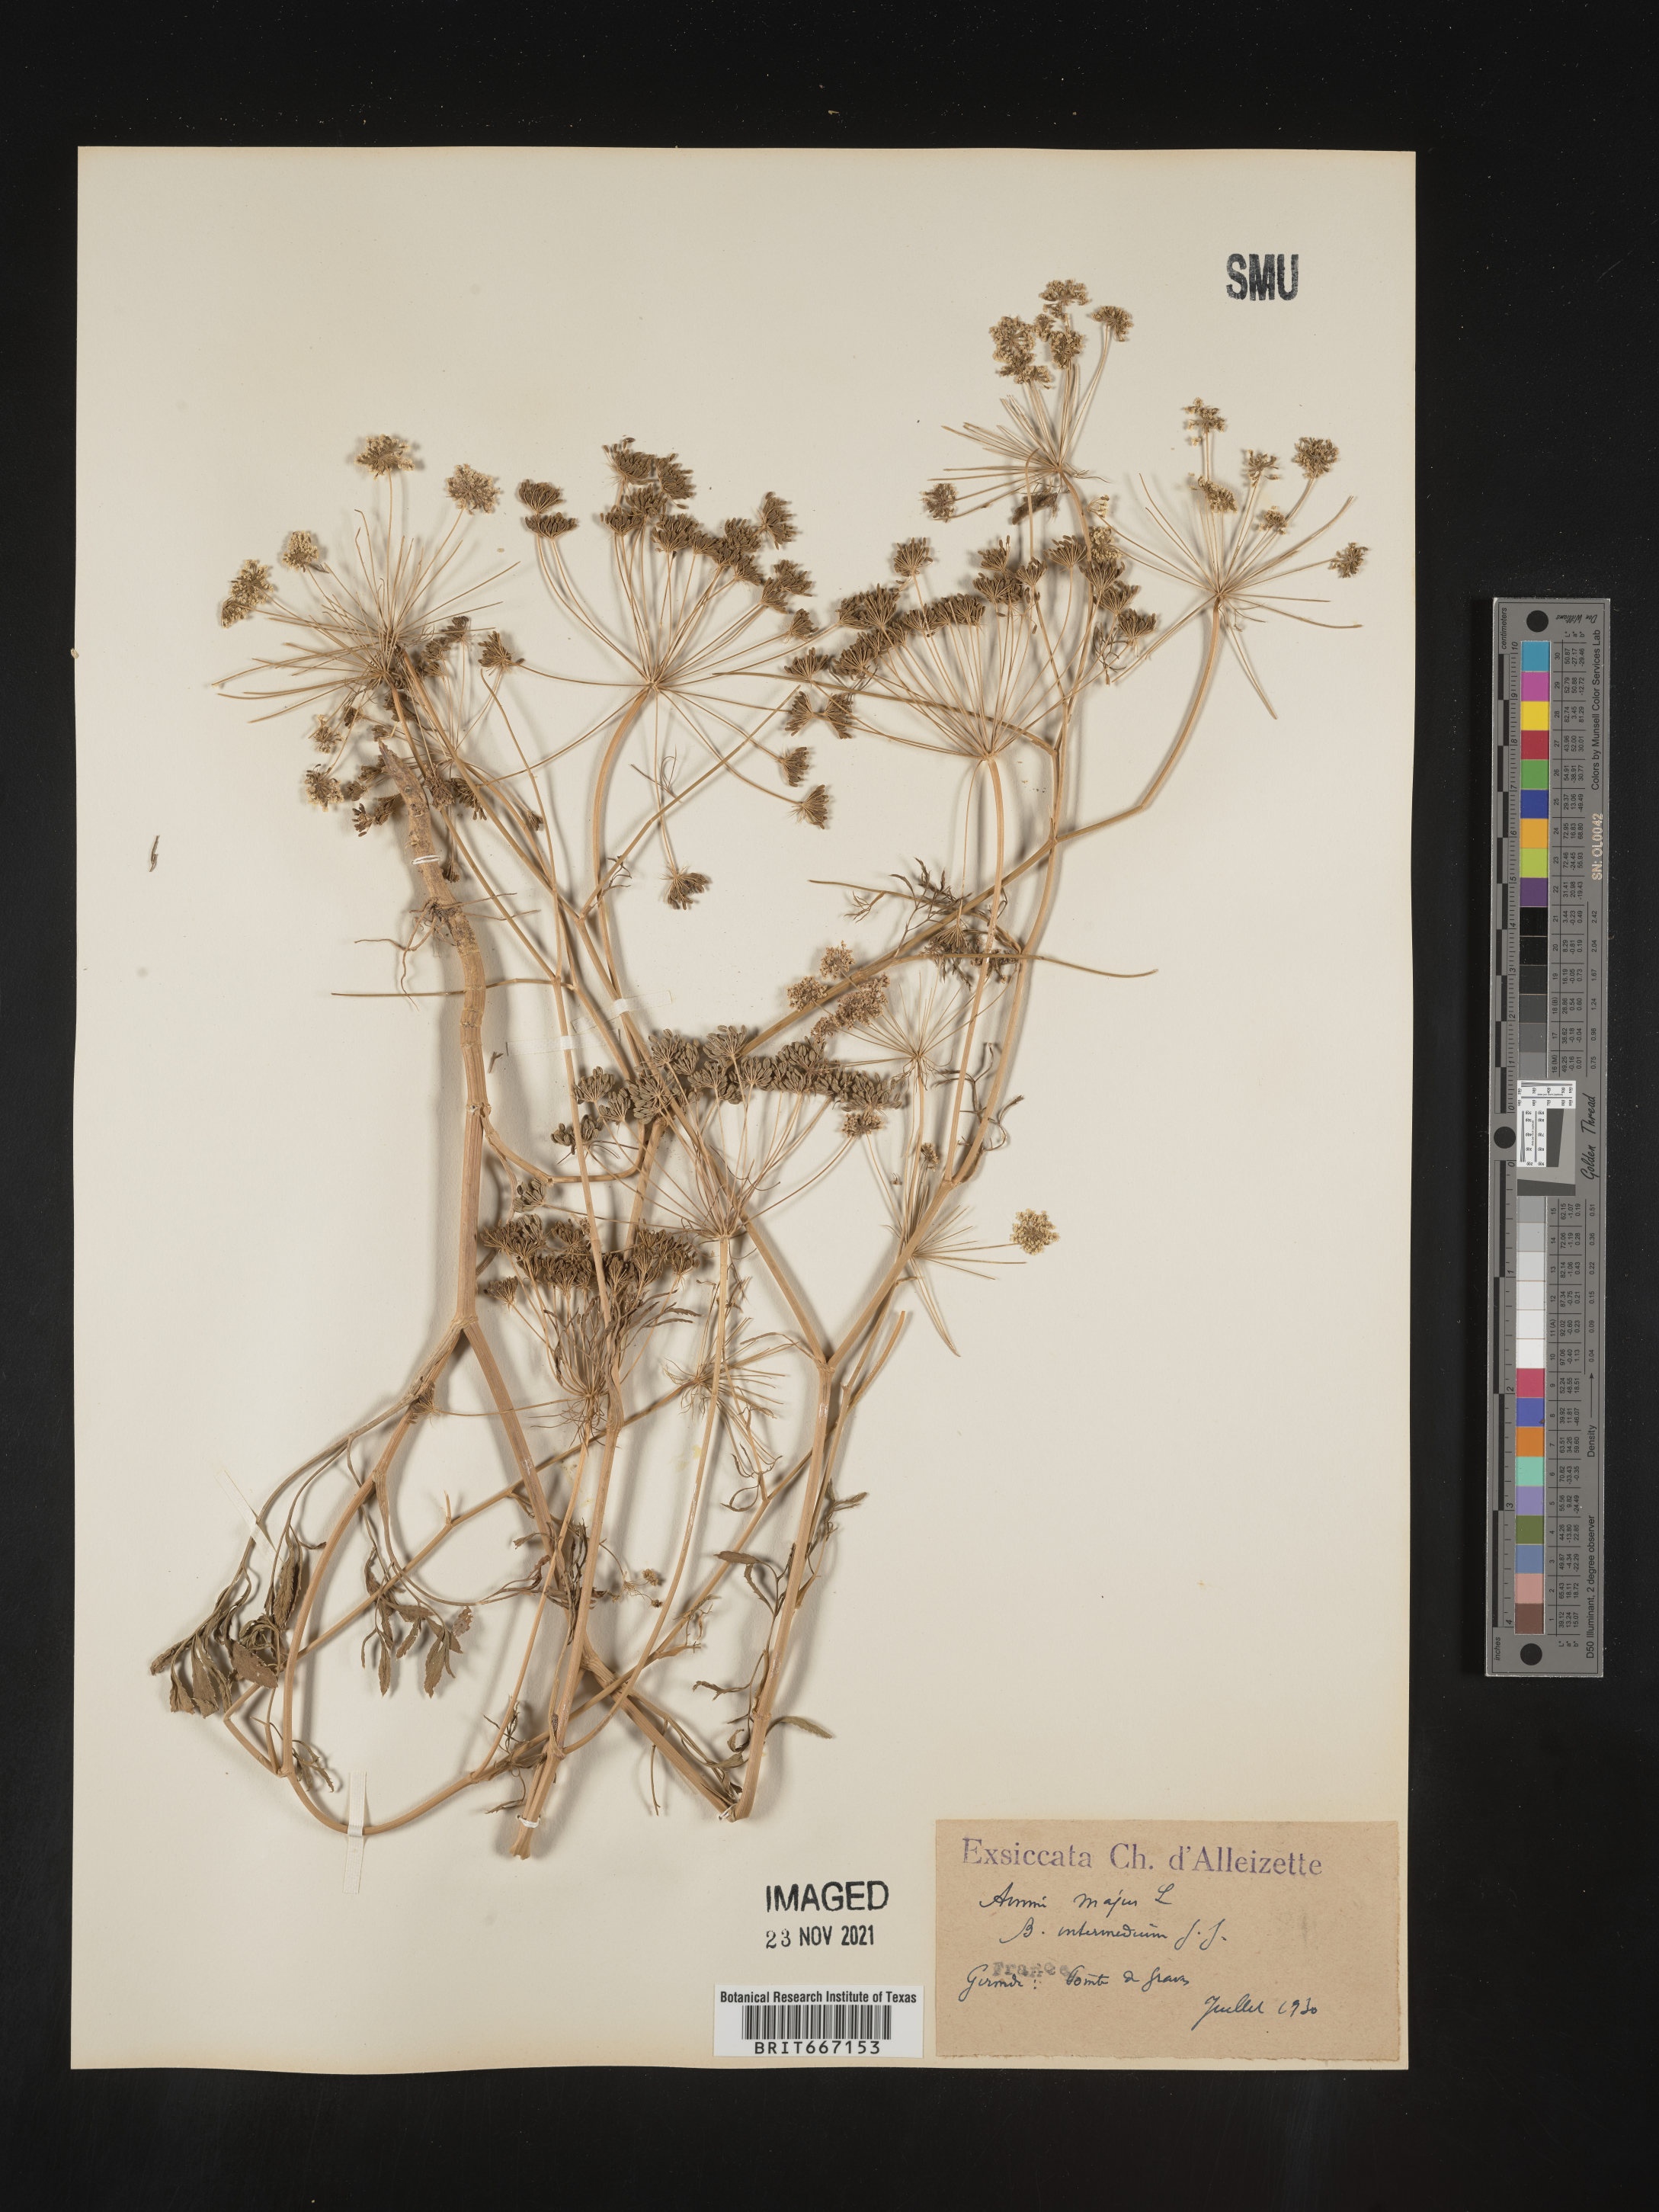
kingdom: Plantae
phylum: Tracheophyta
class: Magnoliopsida
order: Apiales
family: Apiaceae
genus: Ammi
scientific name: Ammi
